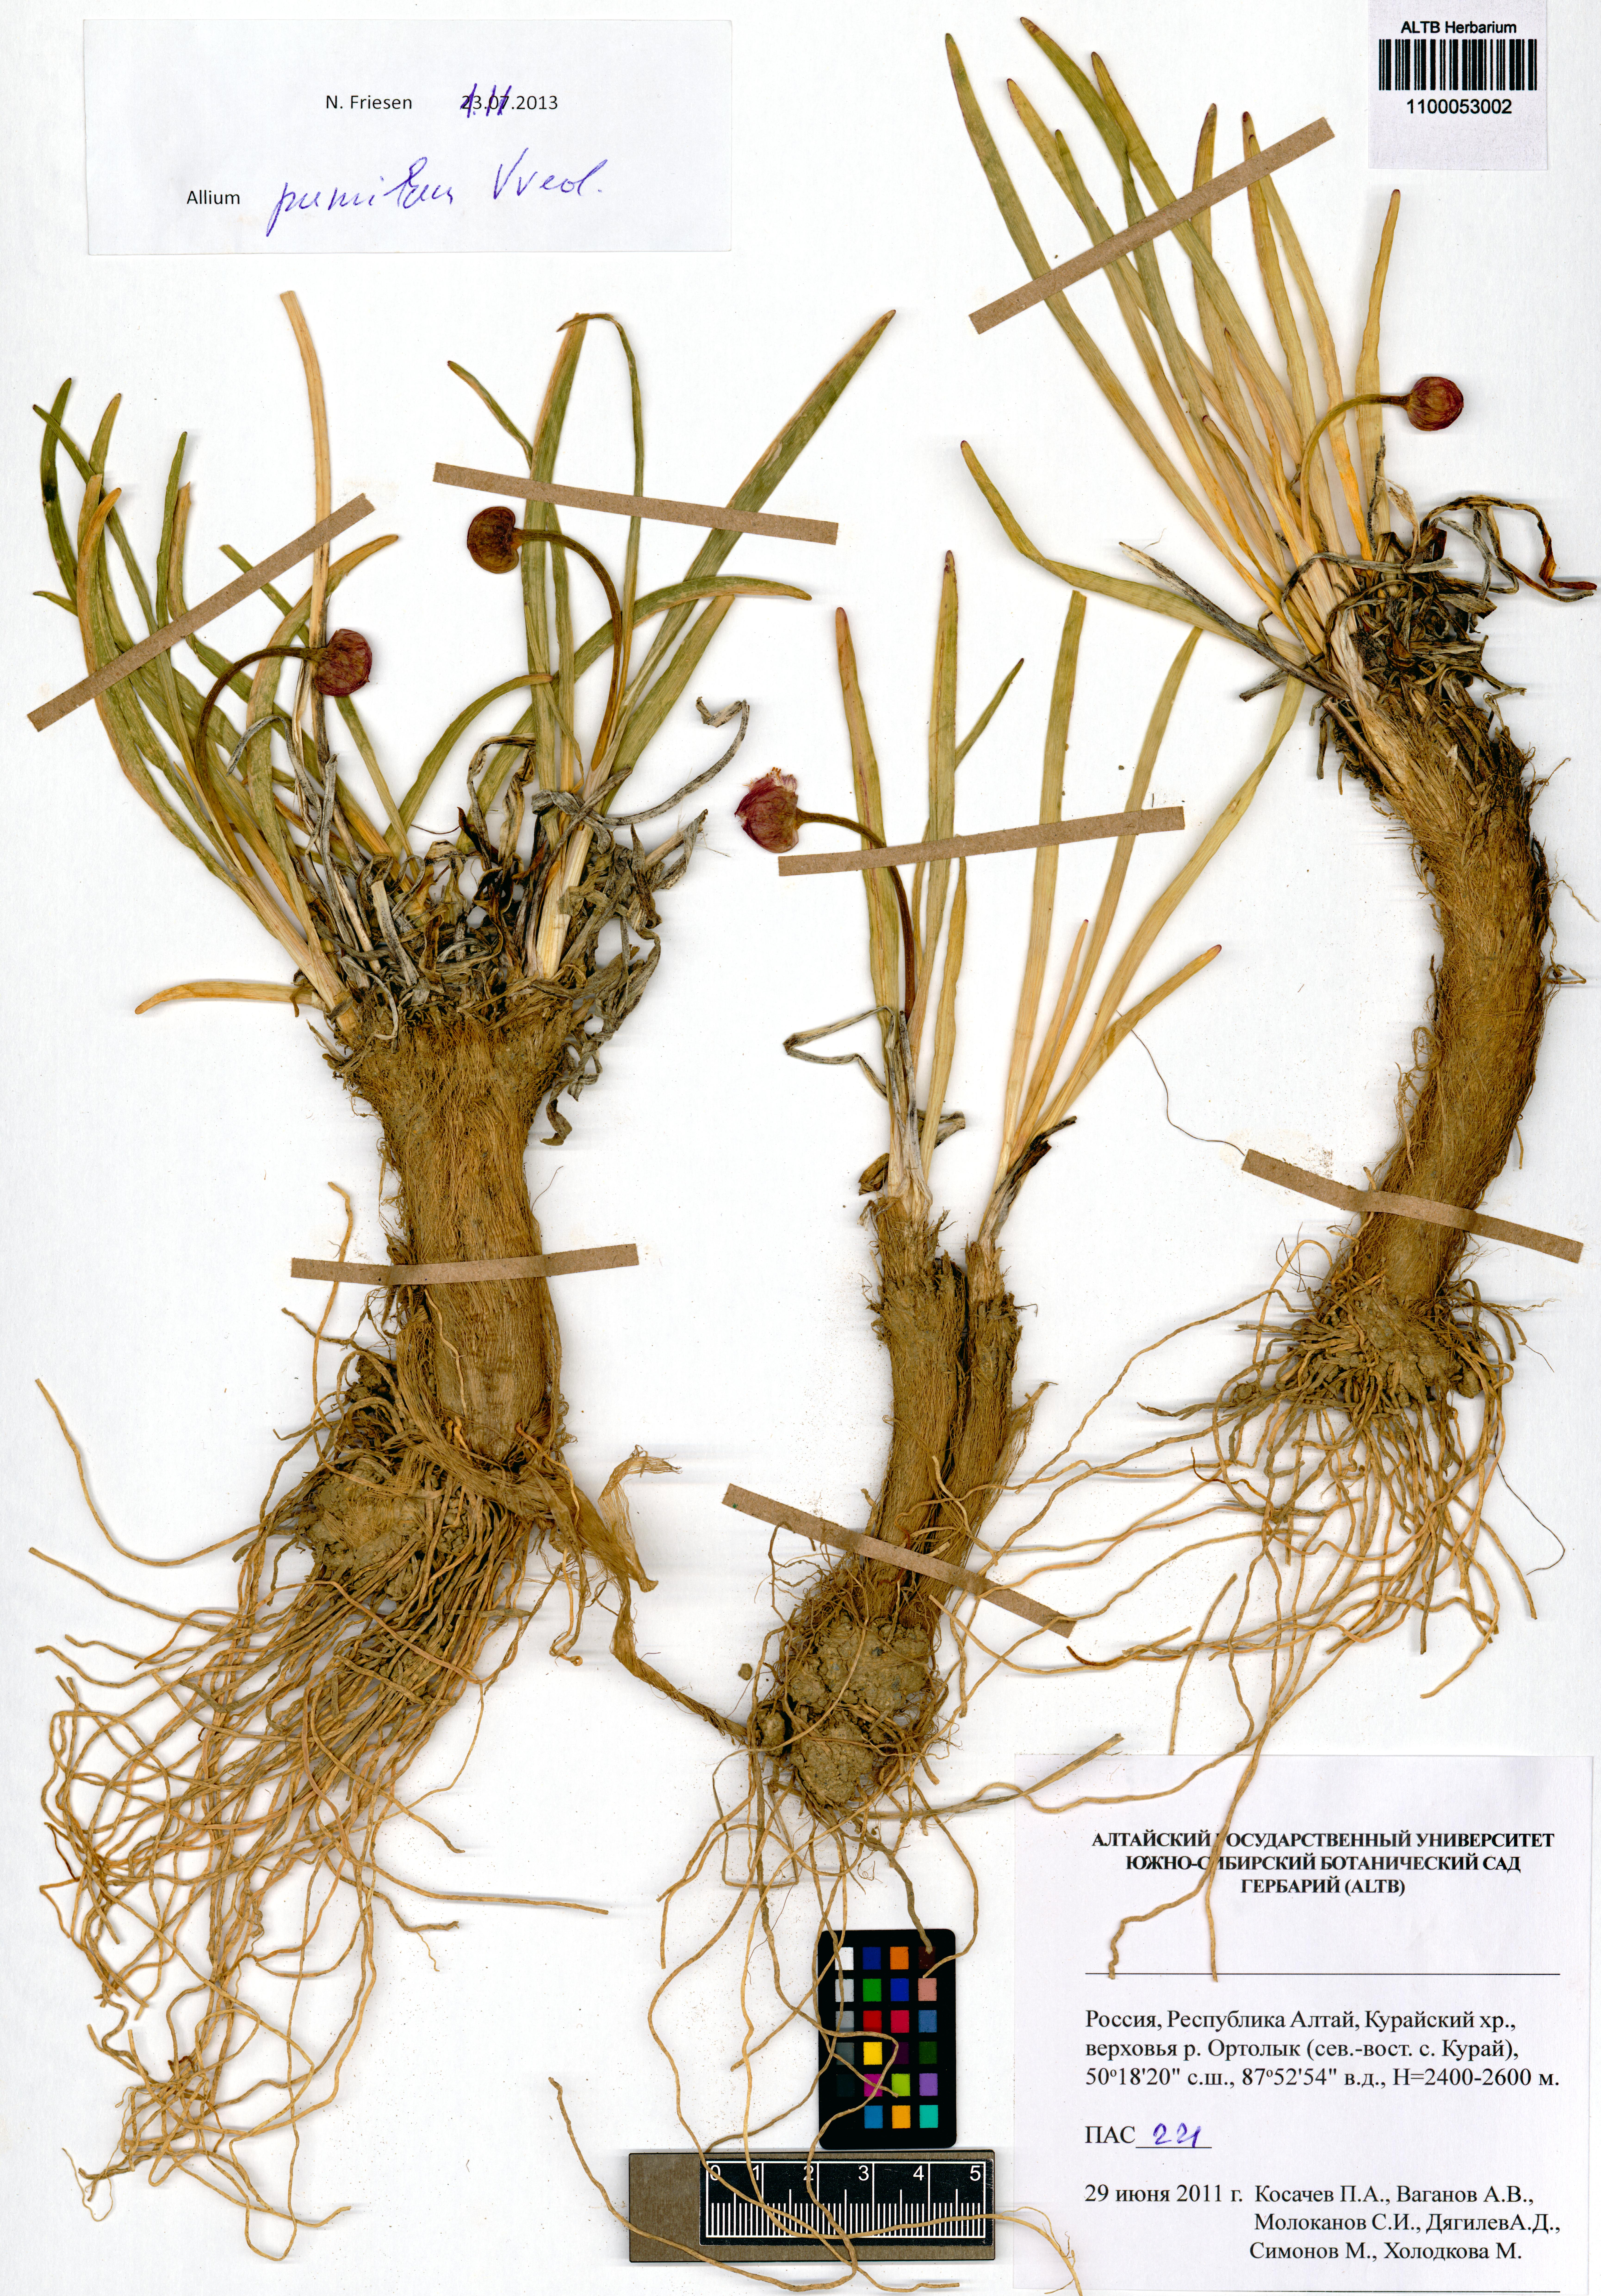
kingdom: Plantae
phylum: Tracheophyta
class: Liliopsida
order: Asparagales
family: Amaryllidaceae
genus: Allium
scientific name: Allium pumilum
